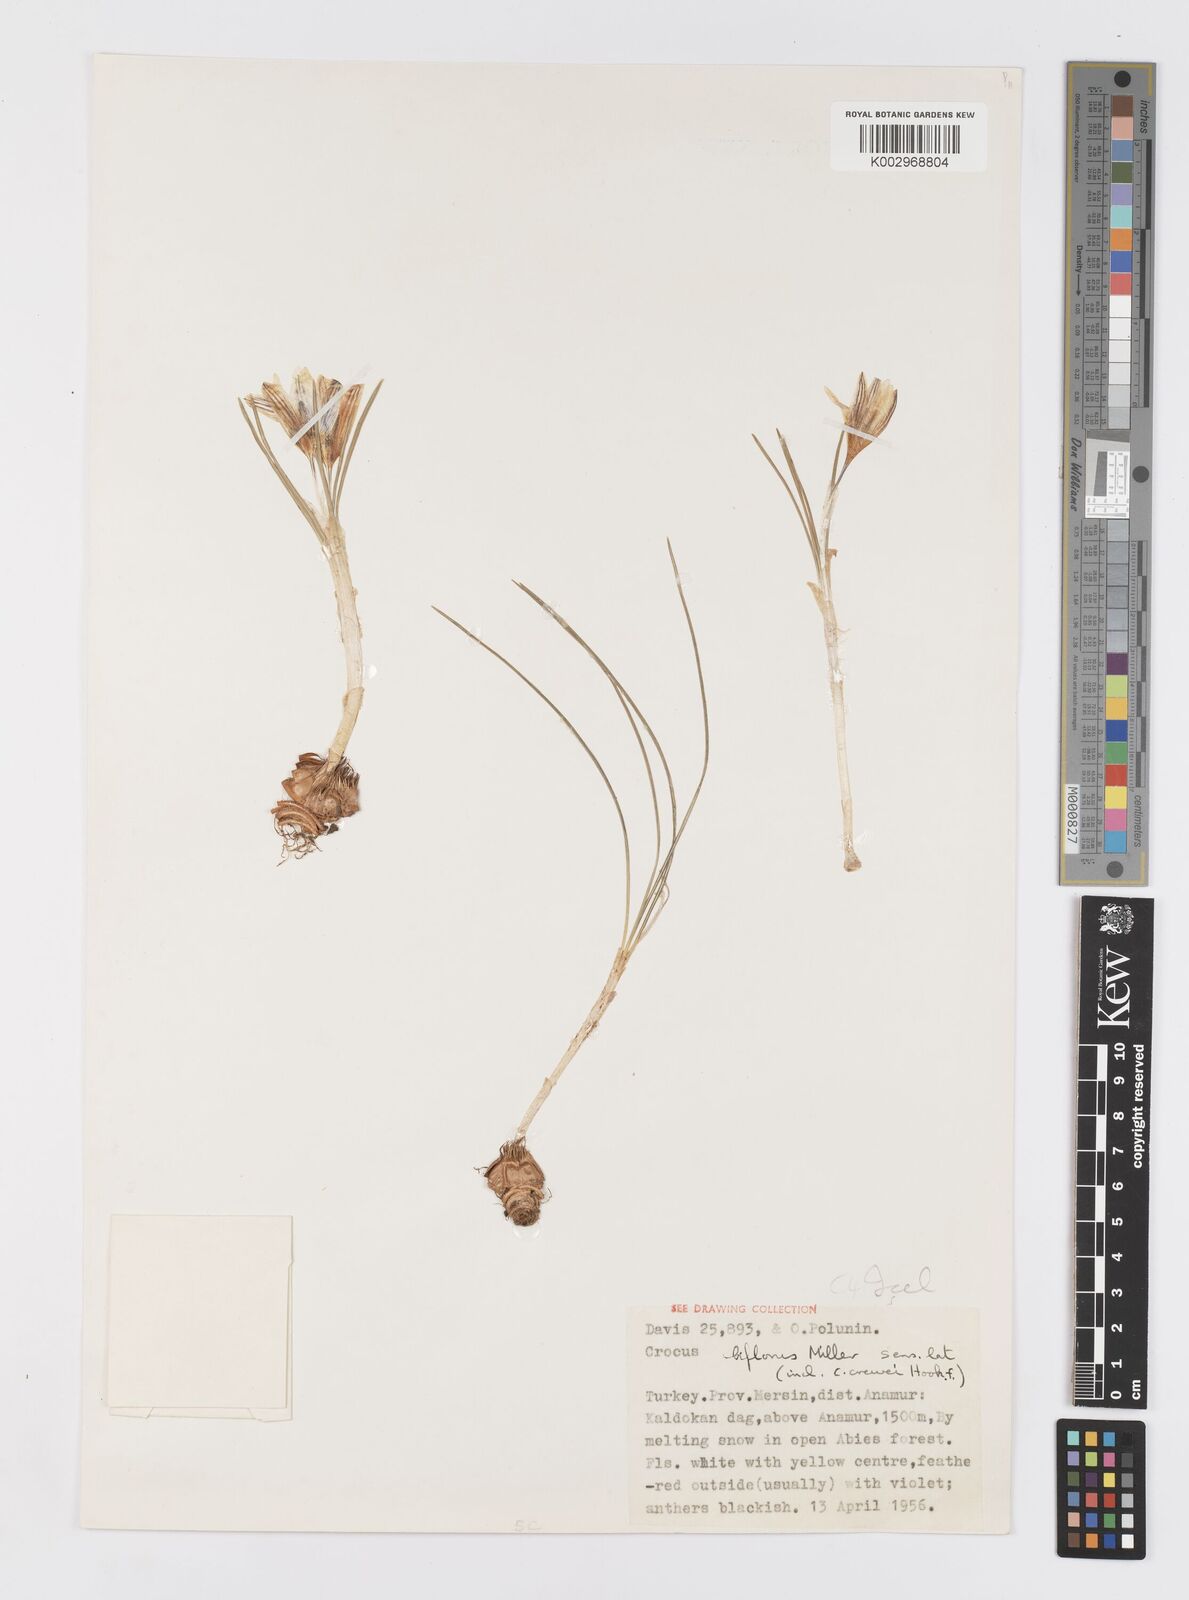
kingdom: Plantae
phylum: Tracheophyta
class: Liliopsida
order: Asparagales
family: Iridaceae
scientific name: Iridaceae
